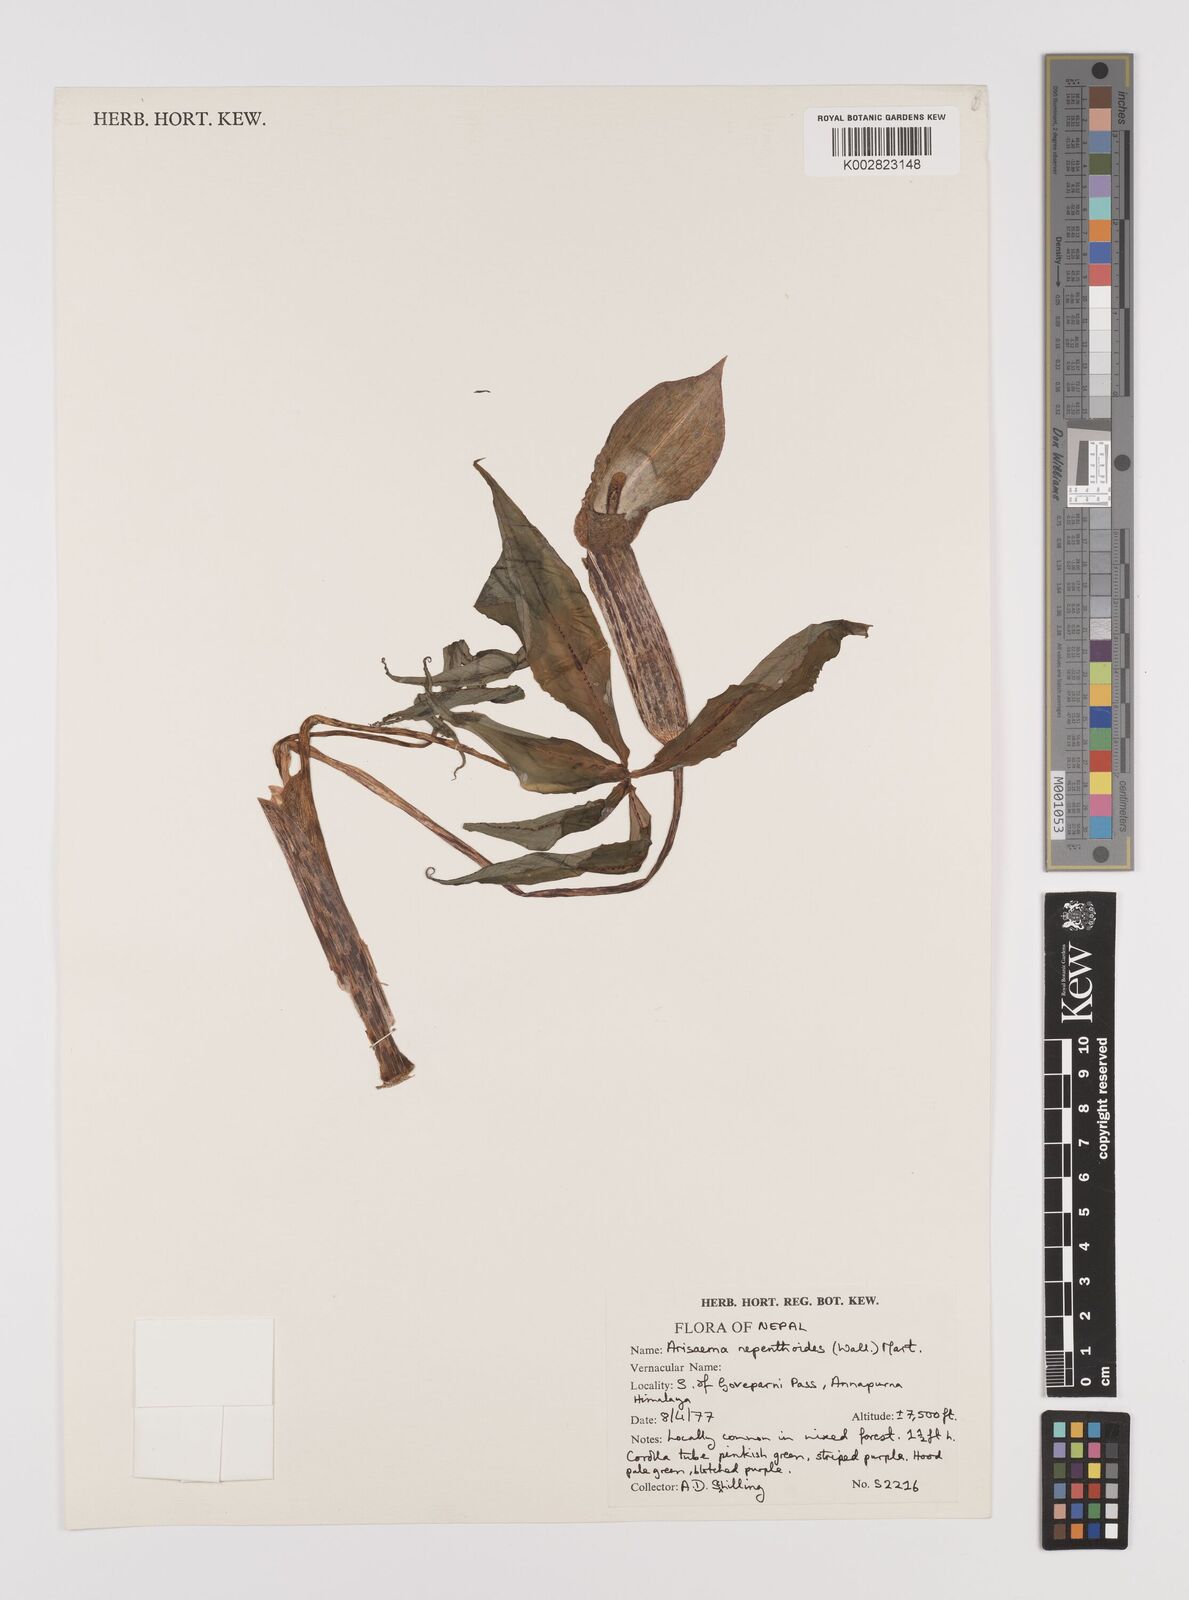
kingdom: Plantae
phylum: Tracheophyta
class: Liliopsida
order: Alismatales
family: Araceae
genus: Arisaema
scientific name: Arisaema nepenthoides
